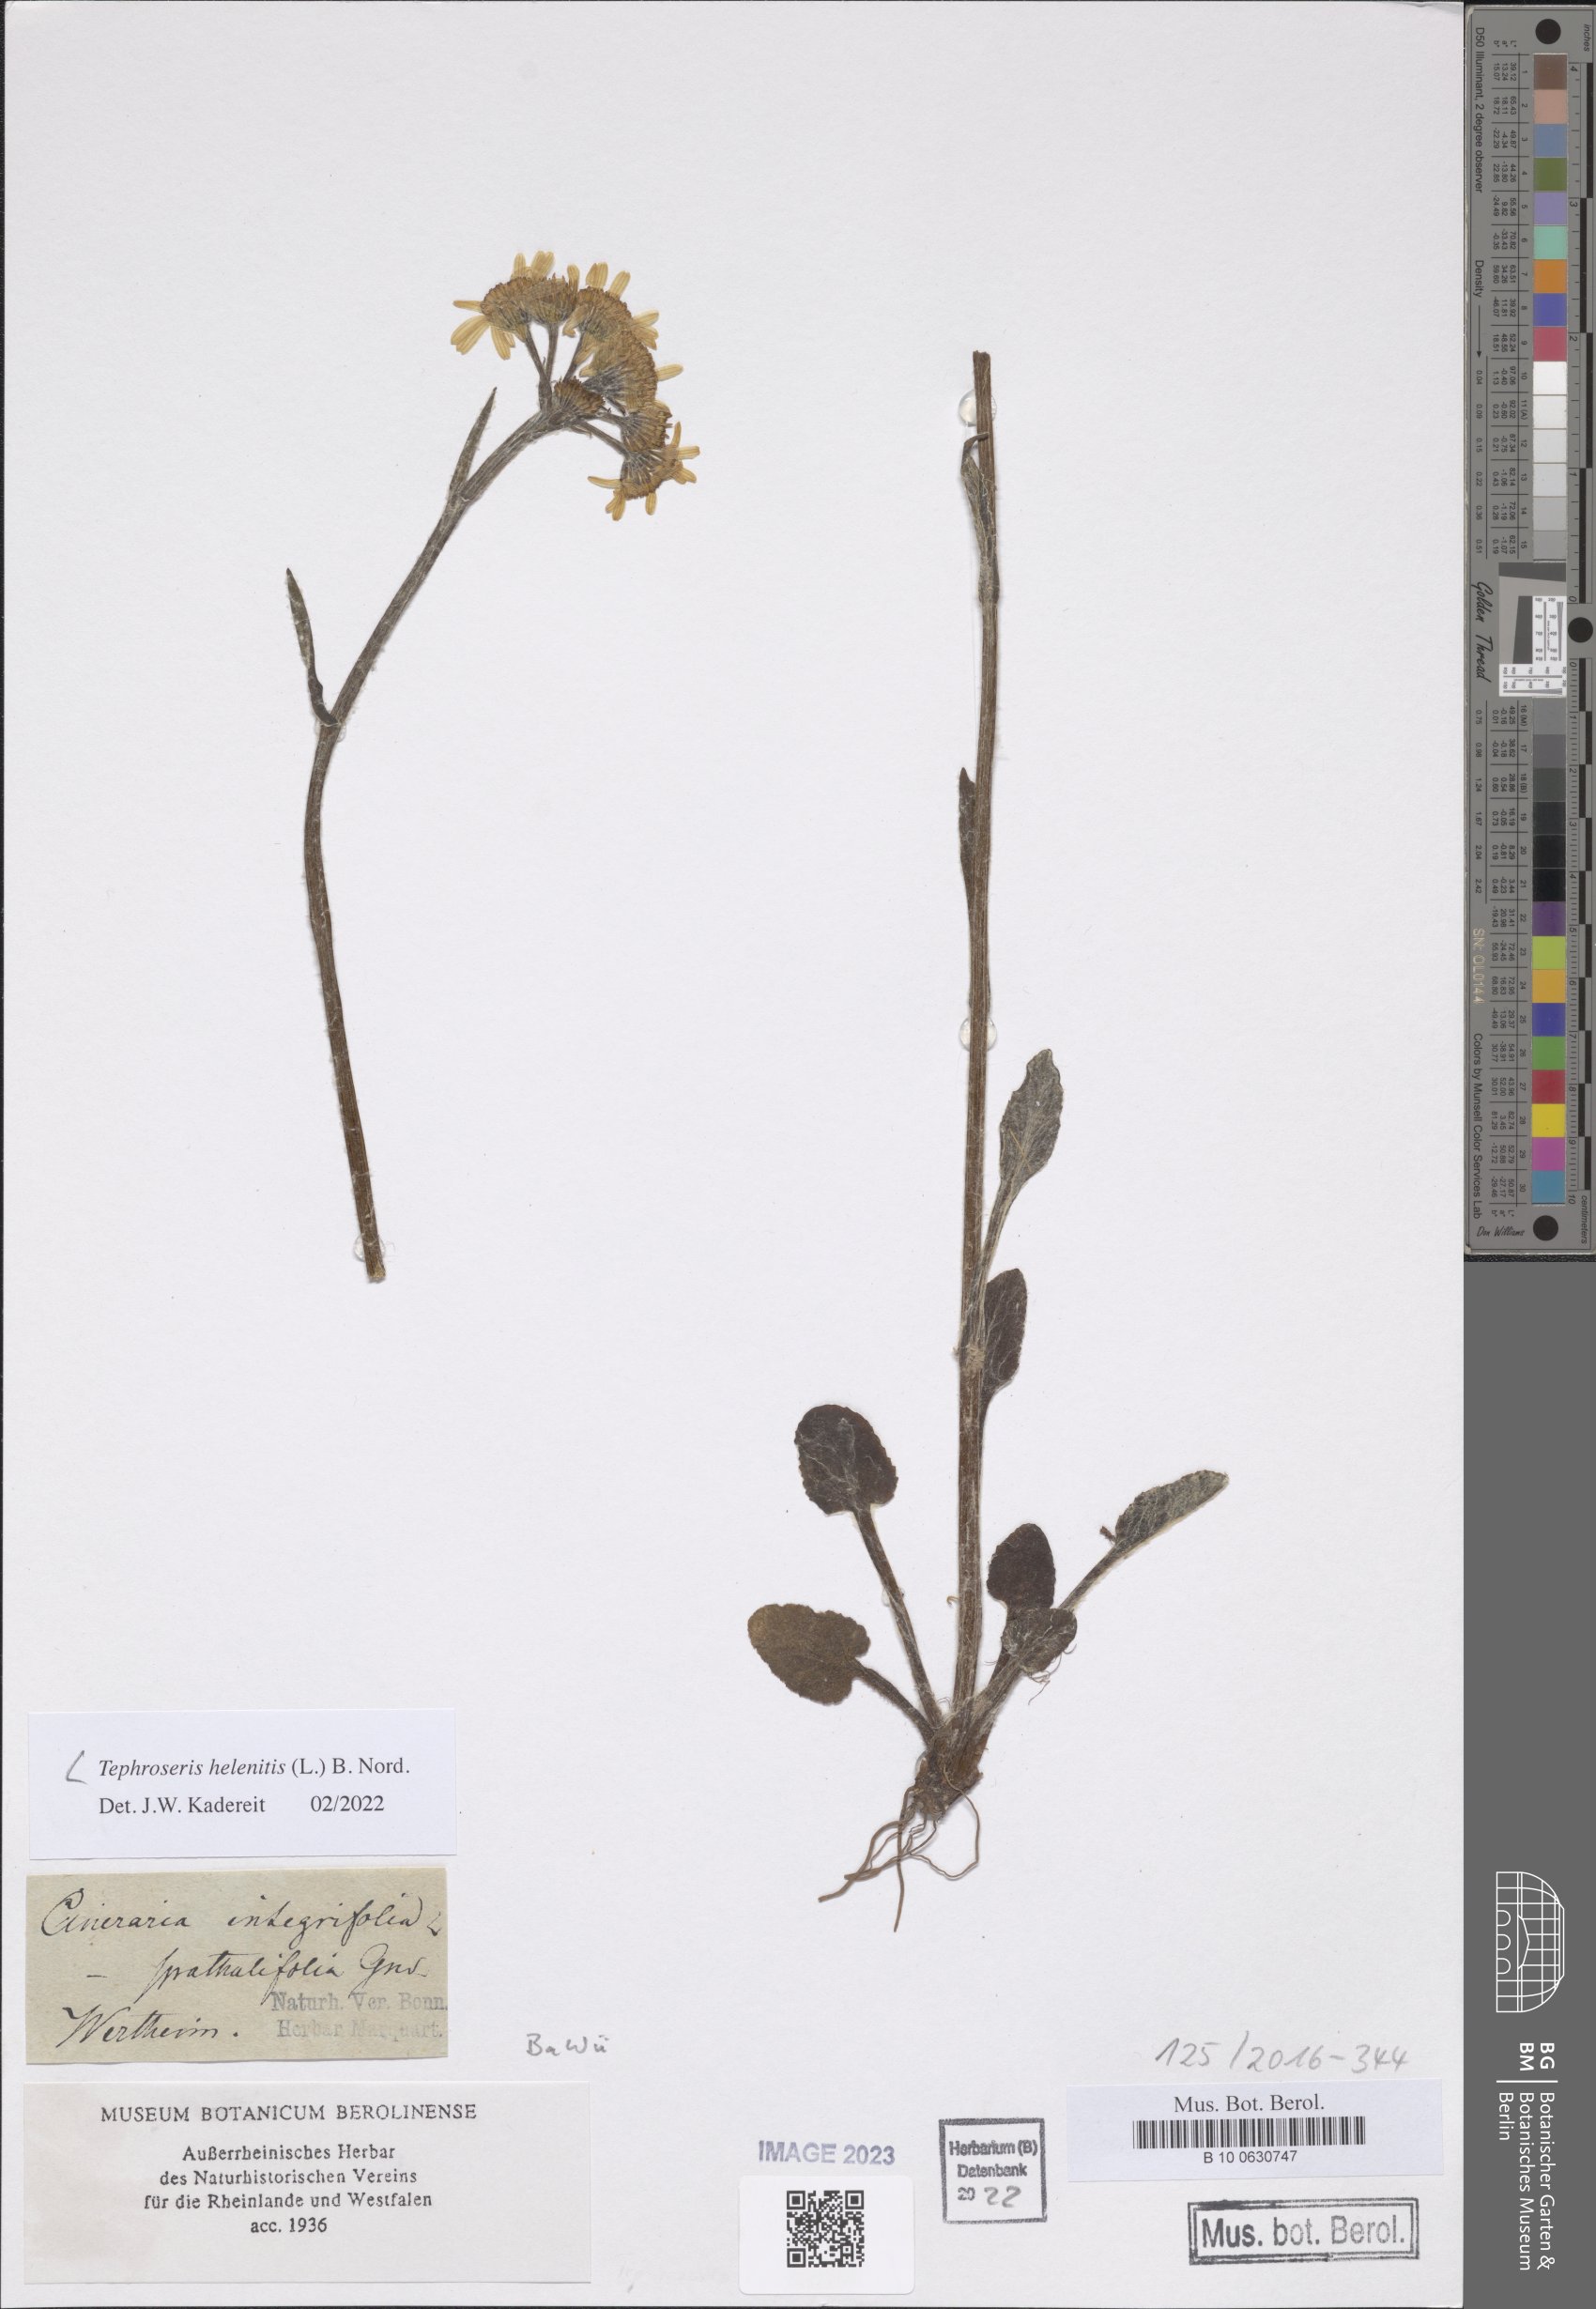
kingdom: Plantae
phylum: Tracheophyta
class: Magnoliopsida
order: Asterales
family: Asteraceae
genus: Tephroseris
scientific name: Tephroseris helenitis
